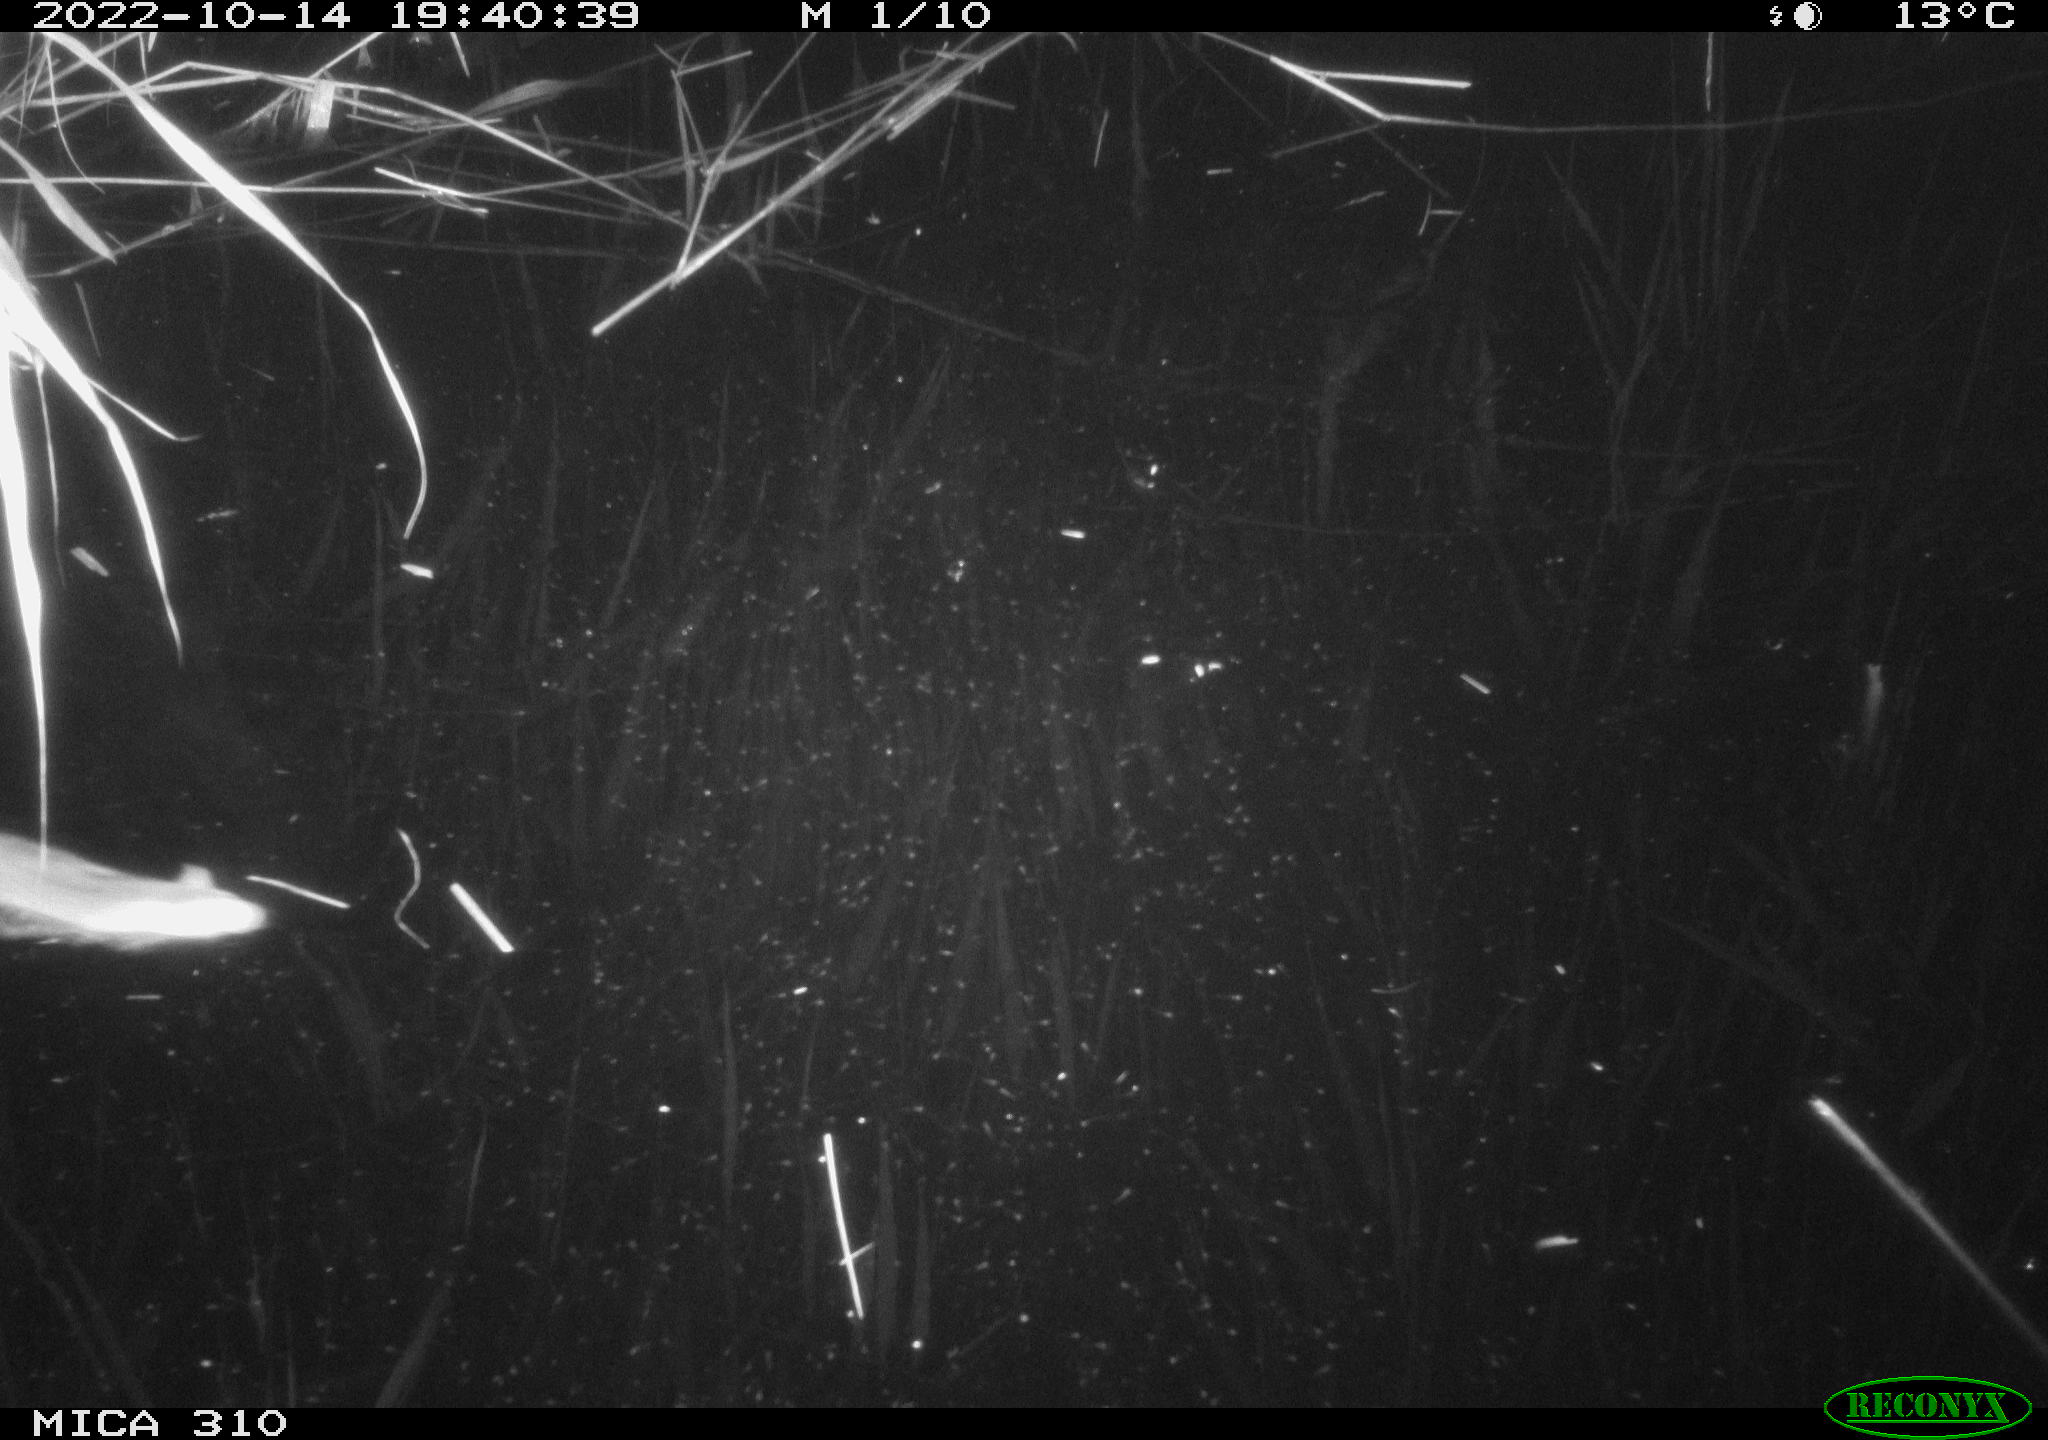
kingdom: Animalia
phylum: Chordata
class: Mammalia
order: Rodentia
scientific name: Rodentia
